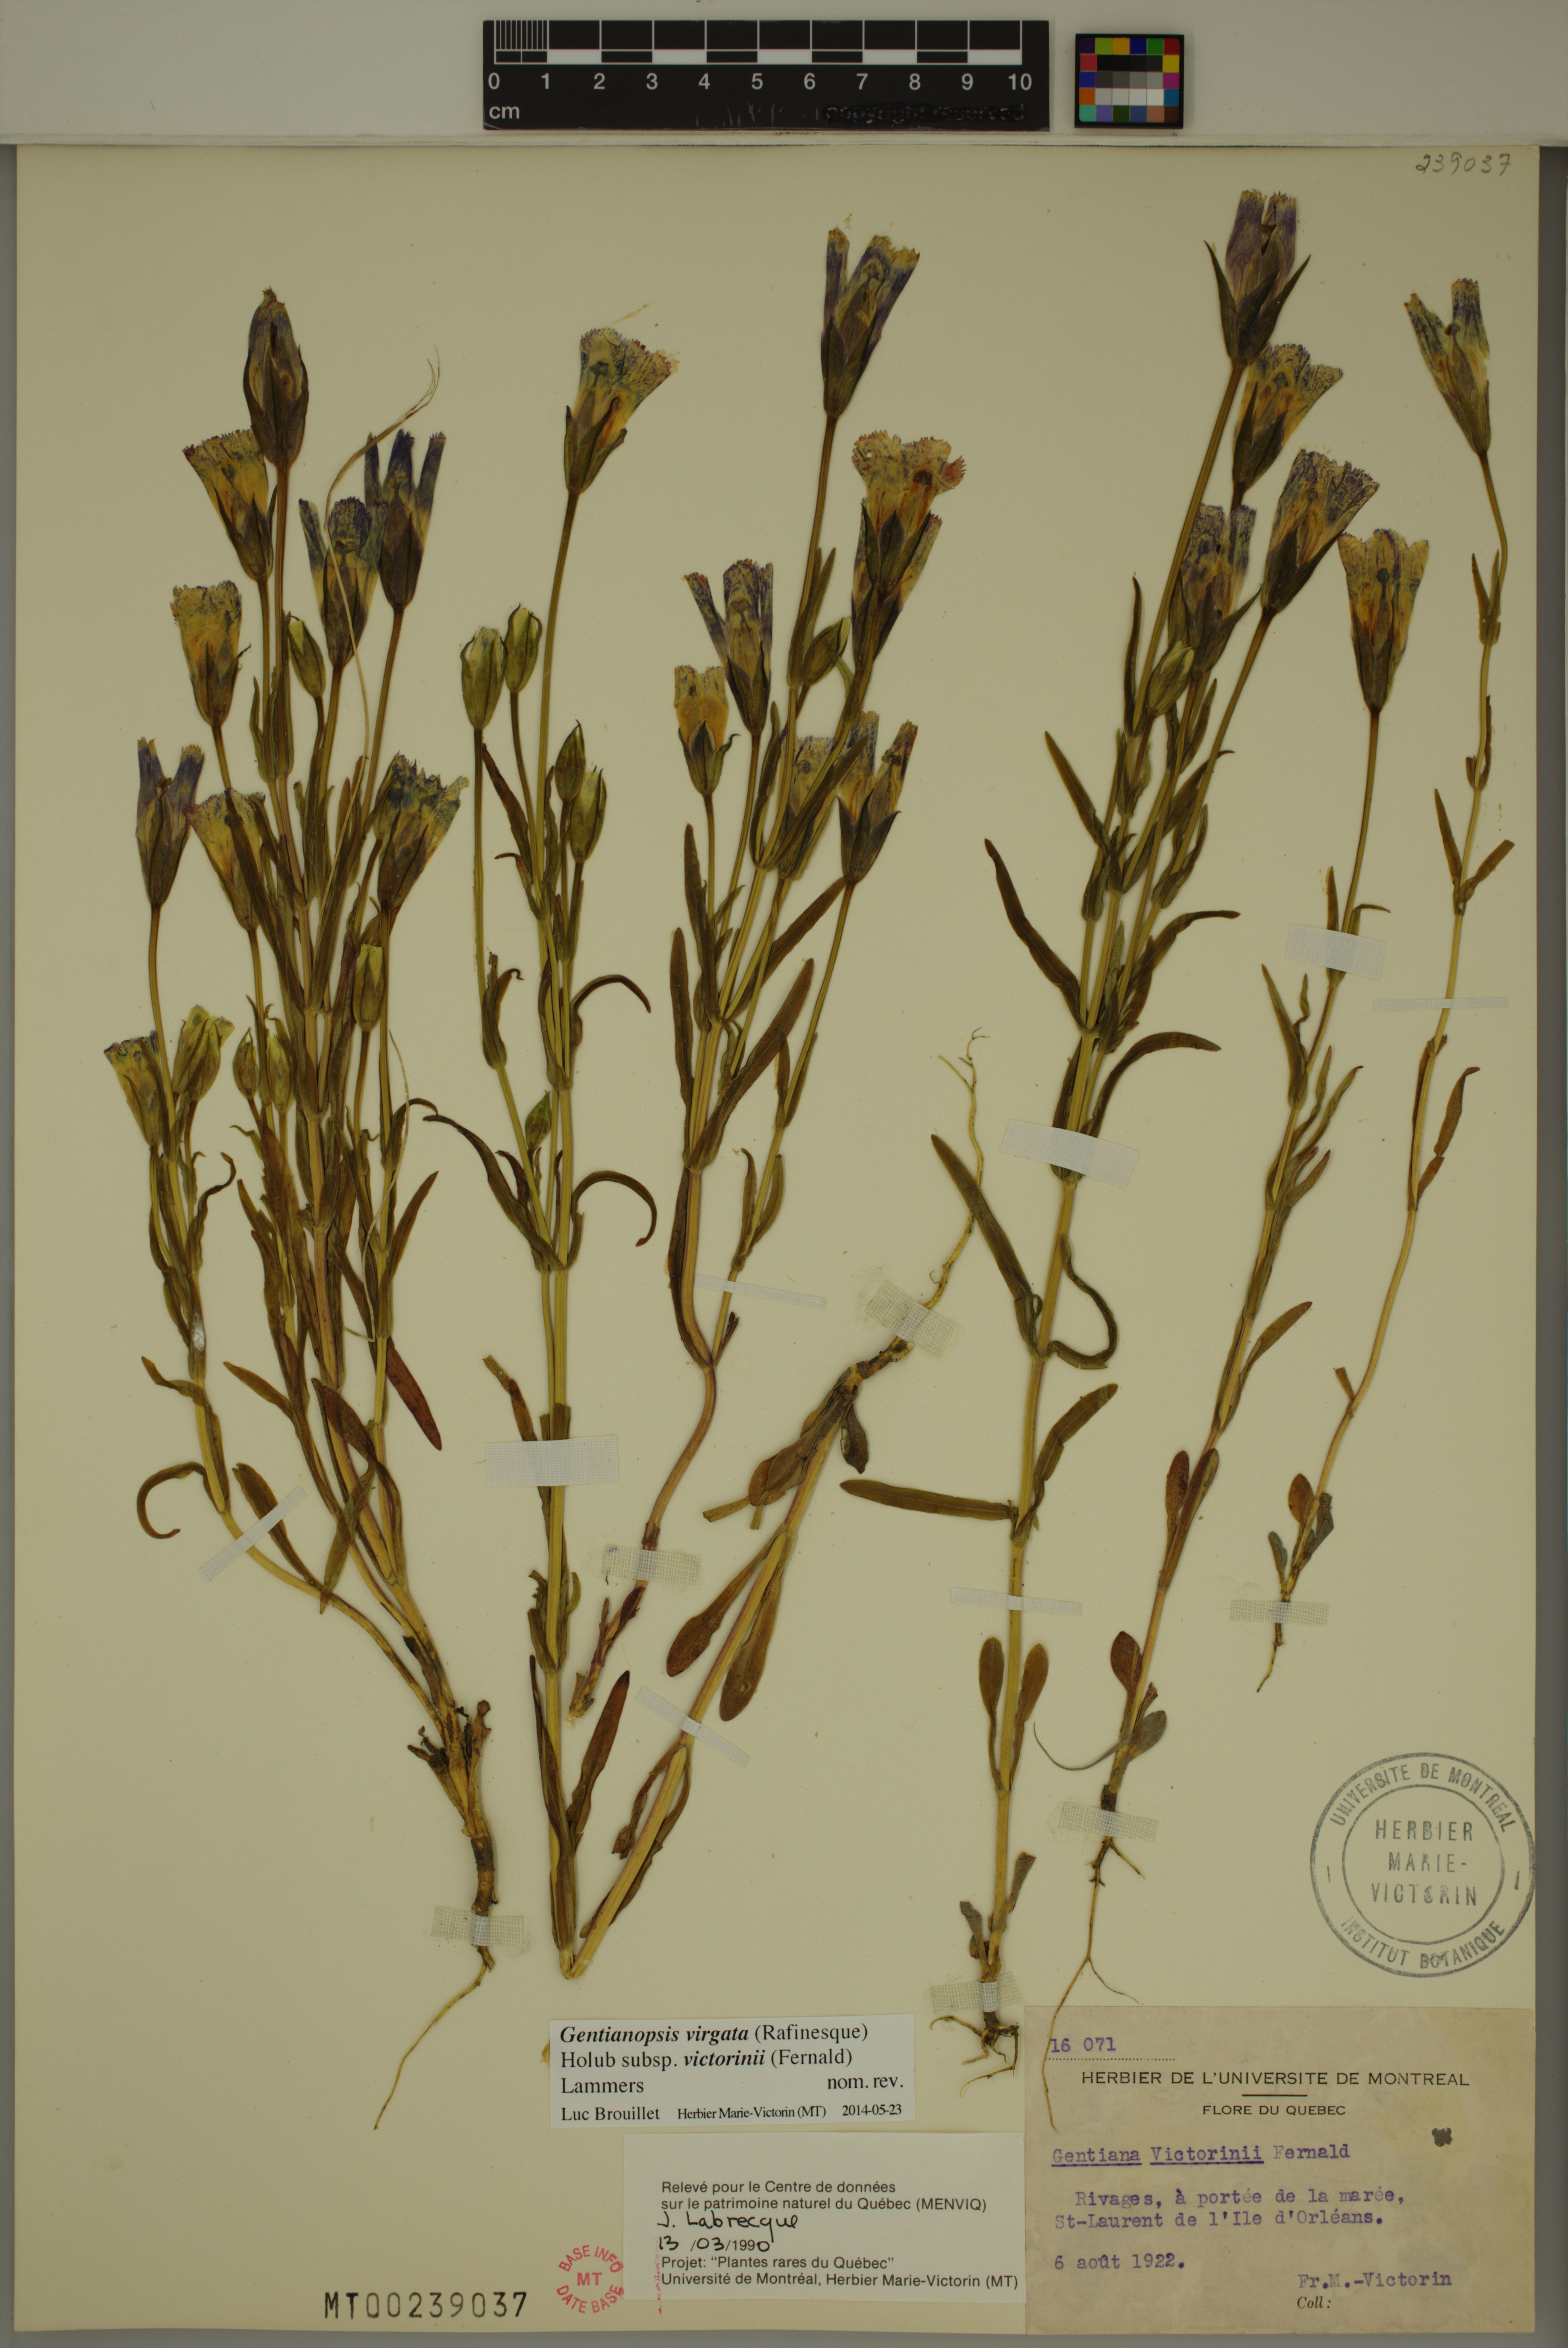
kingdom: Plantae
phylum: Tracheophyta
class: Magnoliopsida
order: Gentianales
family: Gentianaceae
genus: Gentianopsis
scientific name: Gentianopsis victorinii
